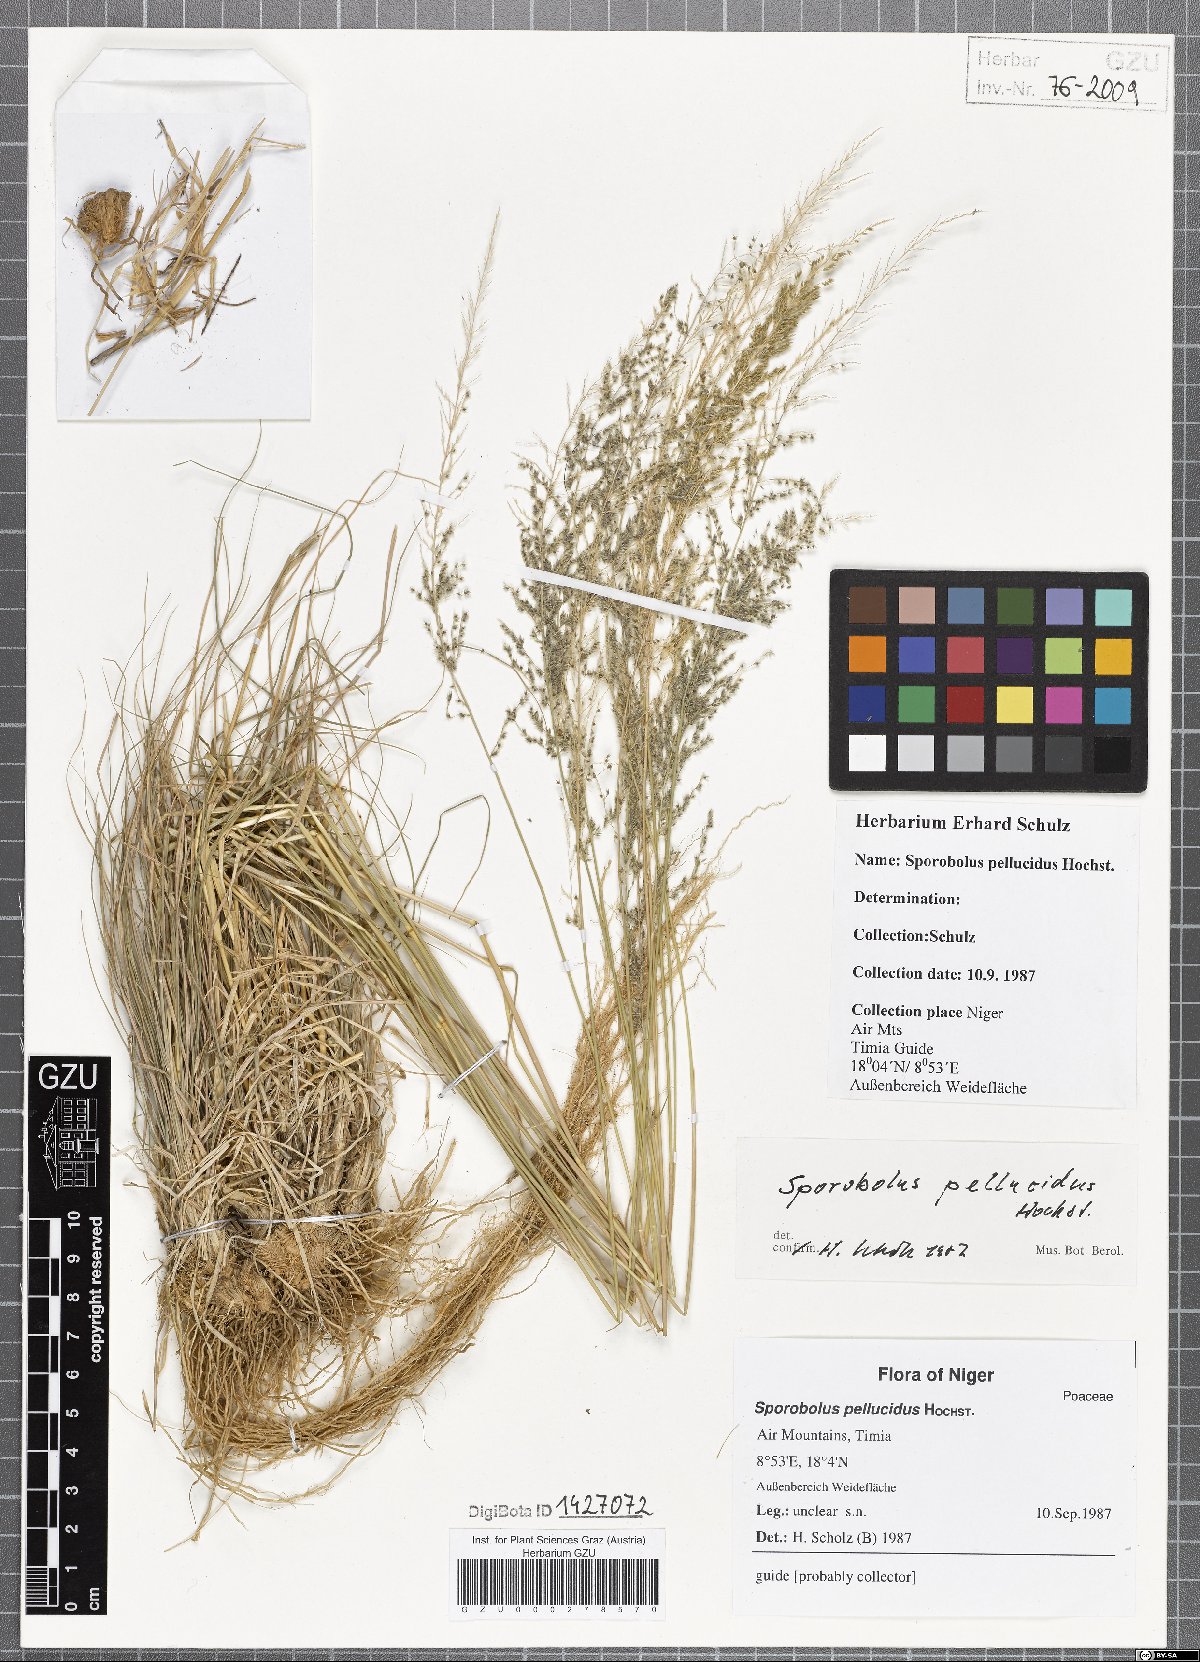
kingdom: Plantae
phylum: Tracheophyta
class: Liliopsida
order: Poales
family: Poaceae
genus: Sporobolus
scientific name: Sporobolus pellucidus
